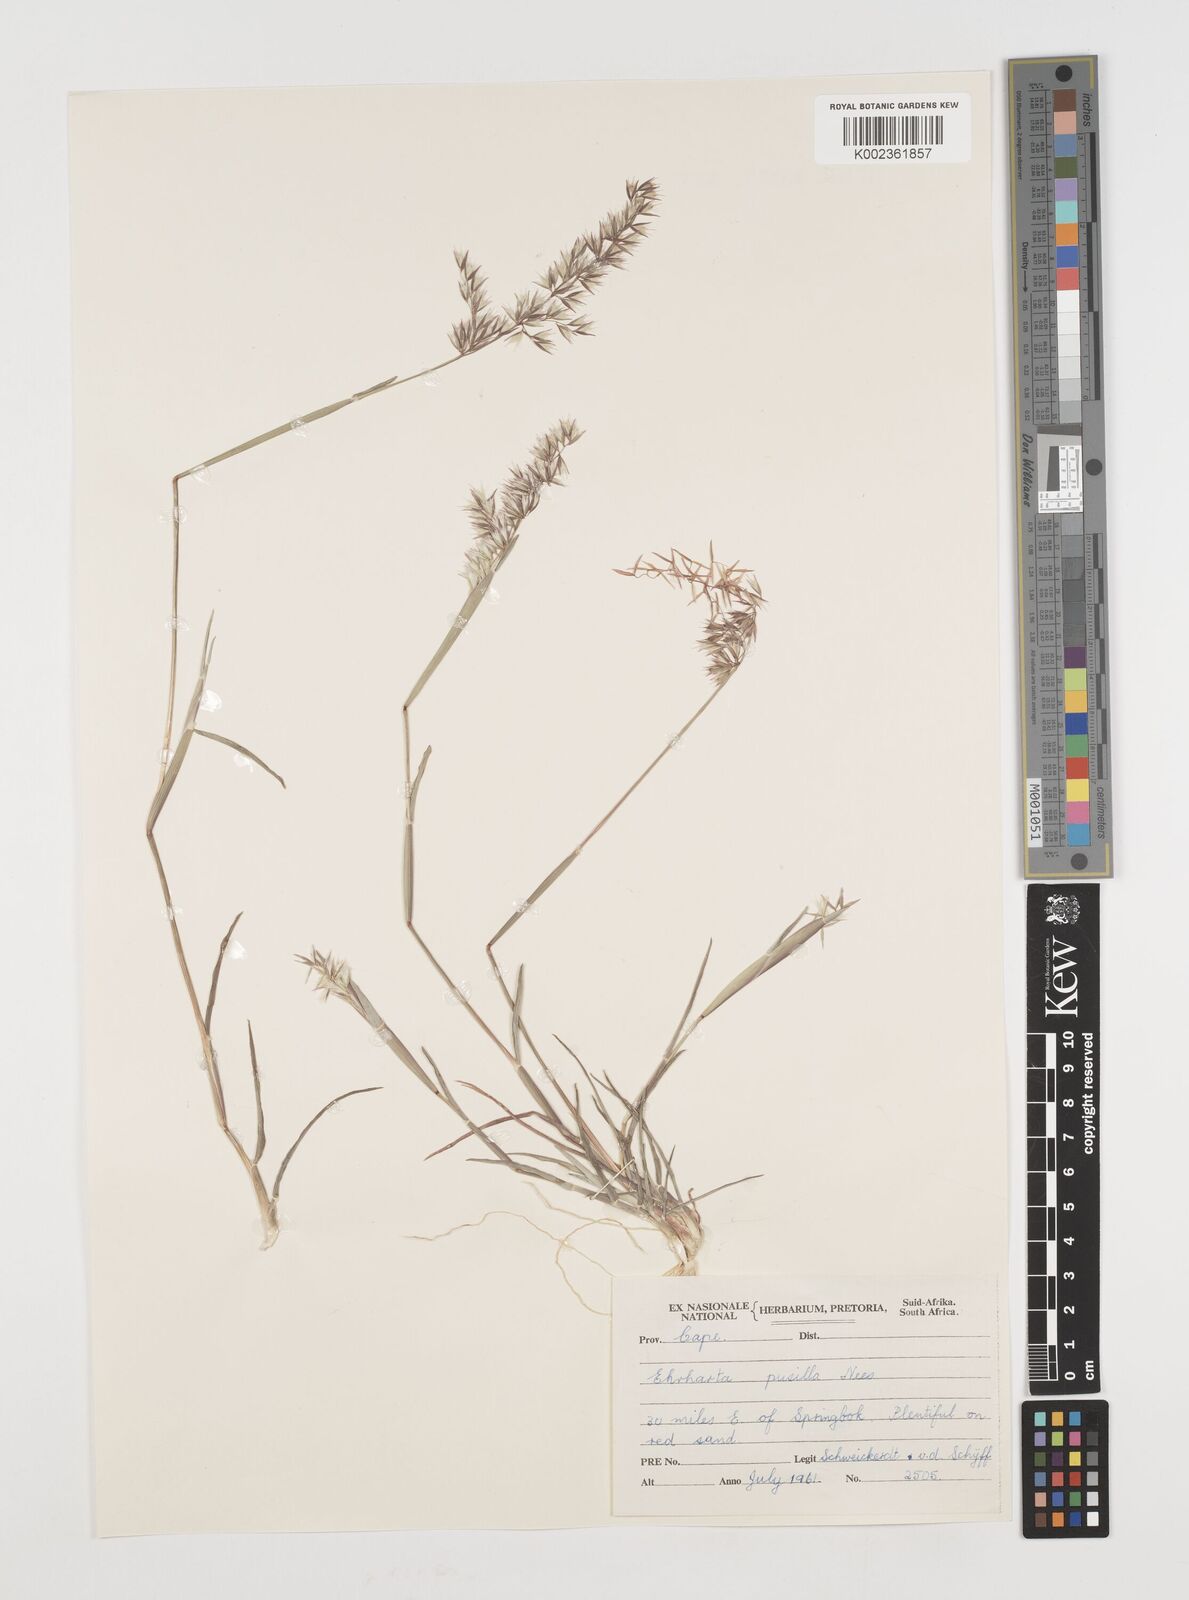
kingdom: Plantae
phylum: Tracheophyta
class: Liliopsida
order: Poales
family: Poaceae
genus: Ehrharta
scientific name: Ehrharta pusilla
